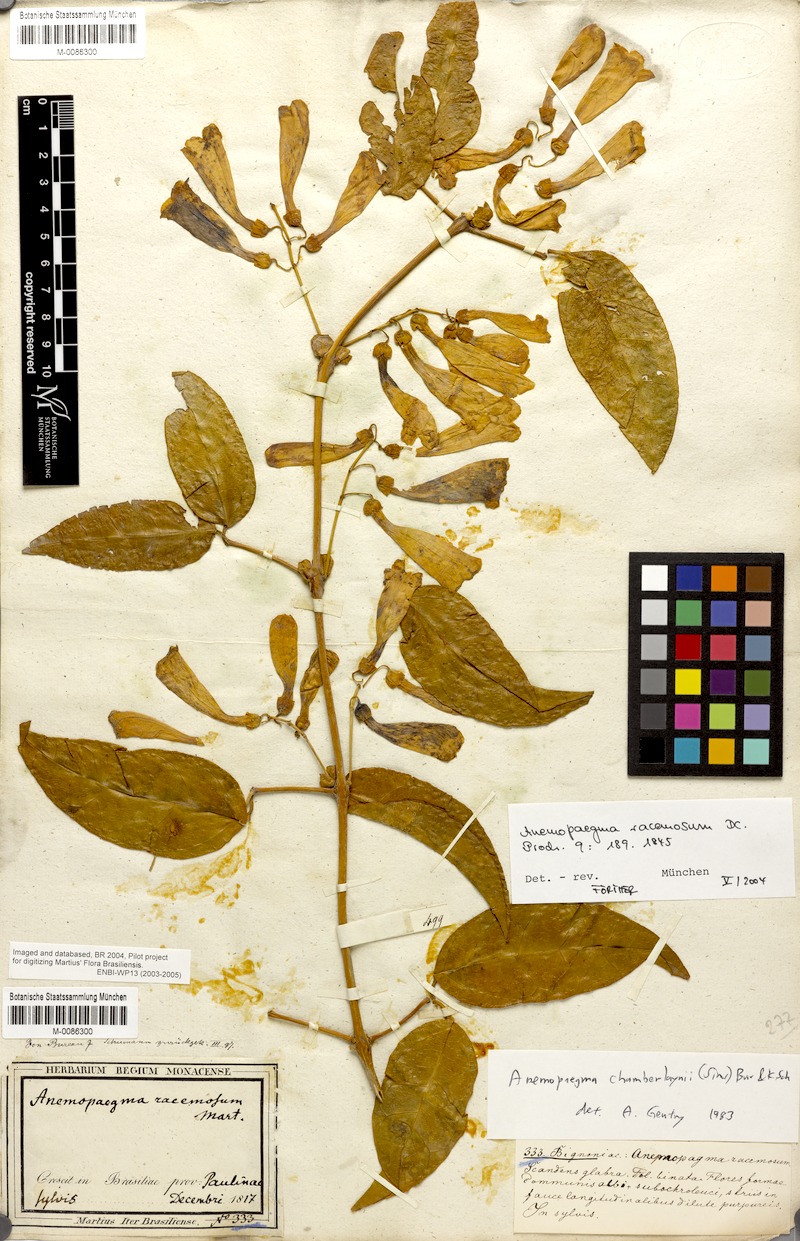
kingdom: Plantae
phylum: Tracheophyta
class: Magnoliopsida
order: Lamiales
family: Bignoniaceae
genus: Anemopaegma
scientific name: Anemopaegma chamberlaynii
